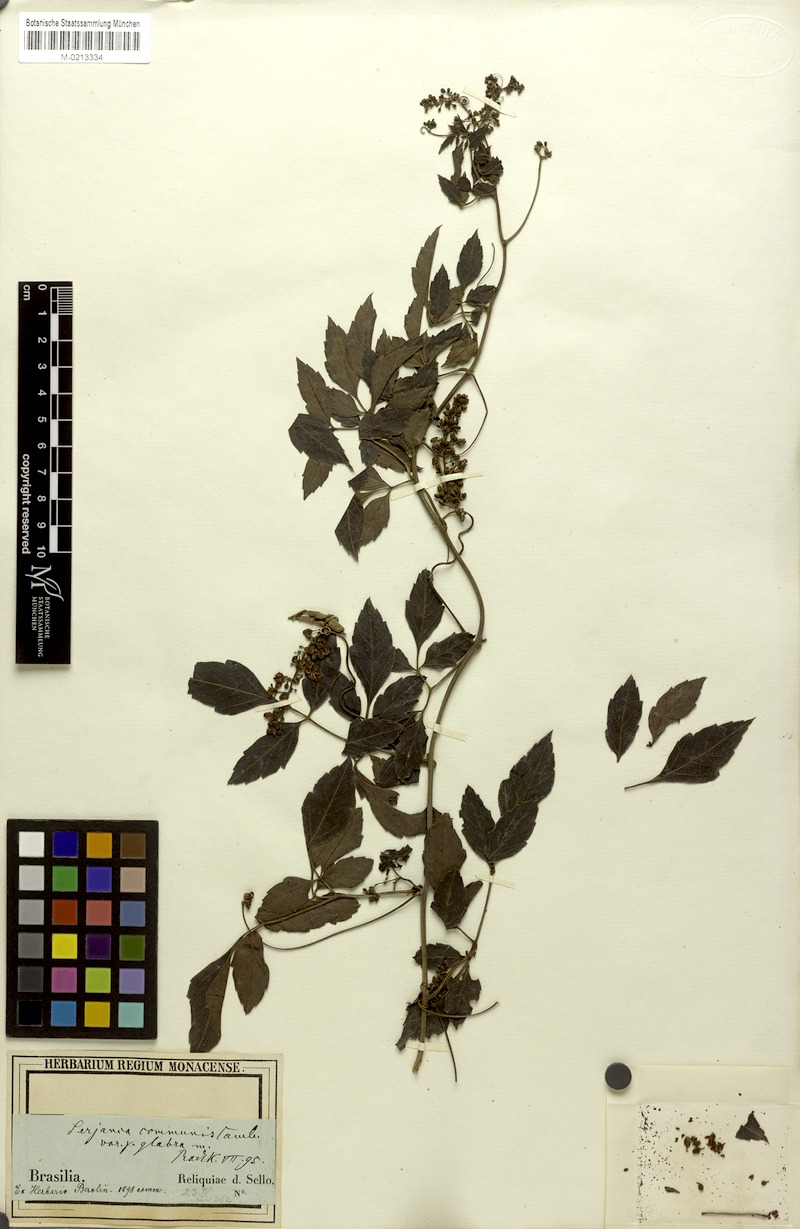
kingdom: Plantae
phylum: Tracheophyta
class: Magnoliopsida
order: Sapindales
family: Sapindaceae
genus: Serjania
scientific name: Serjania communis
